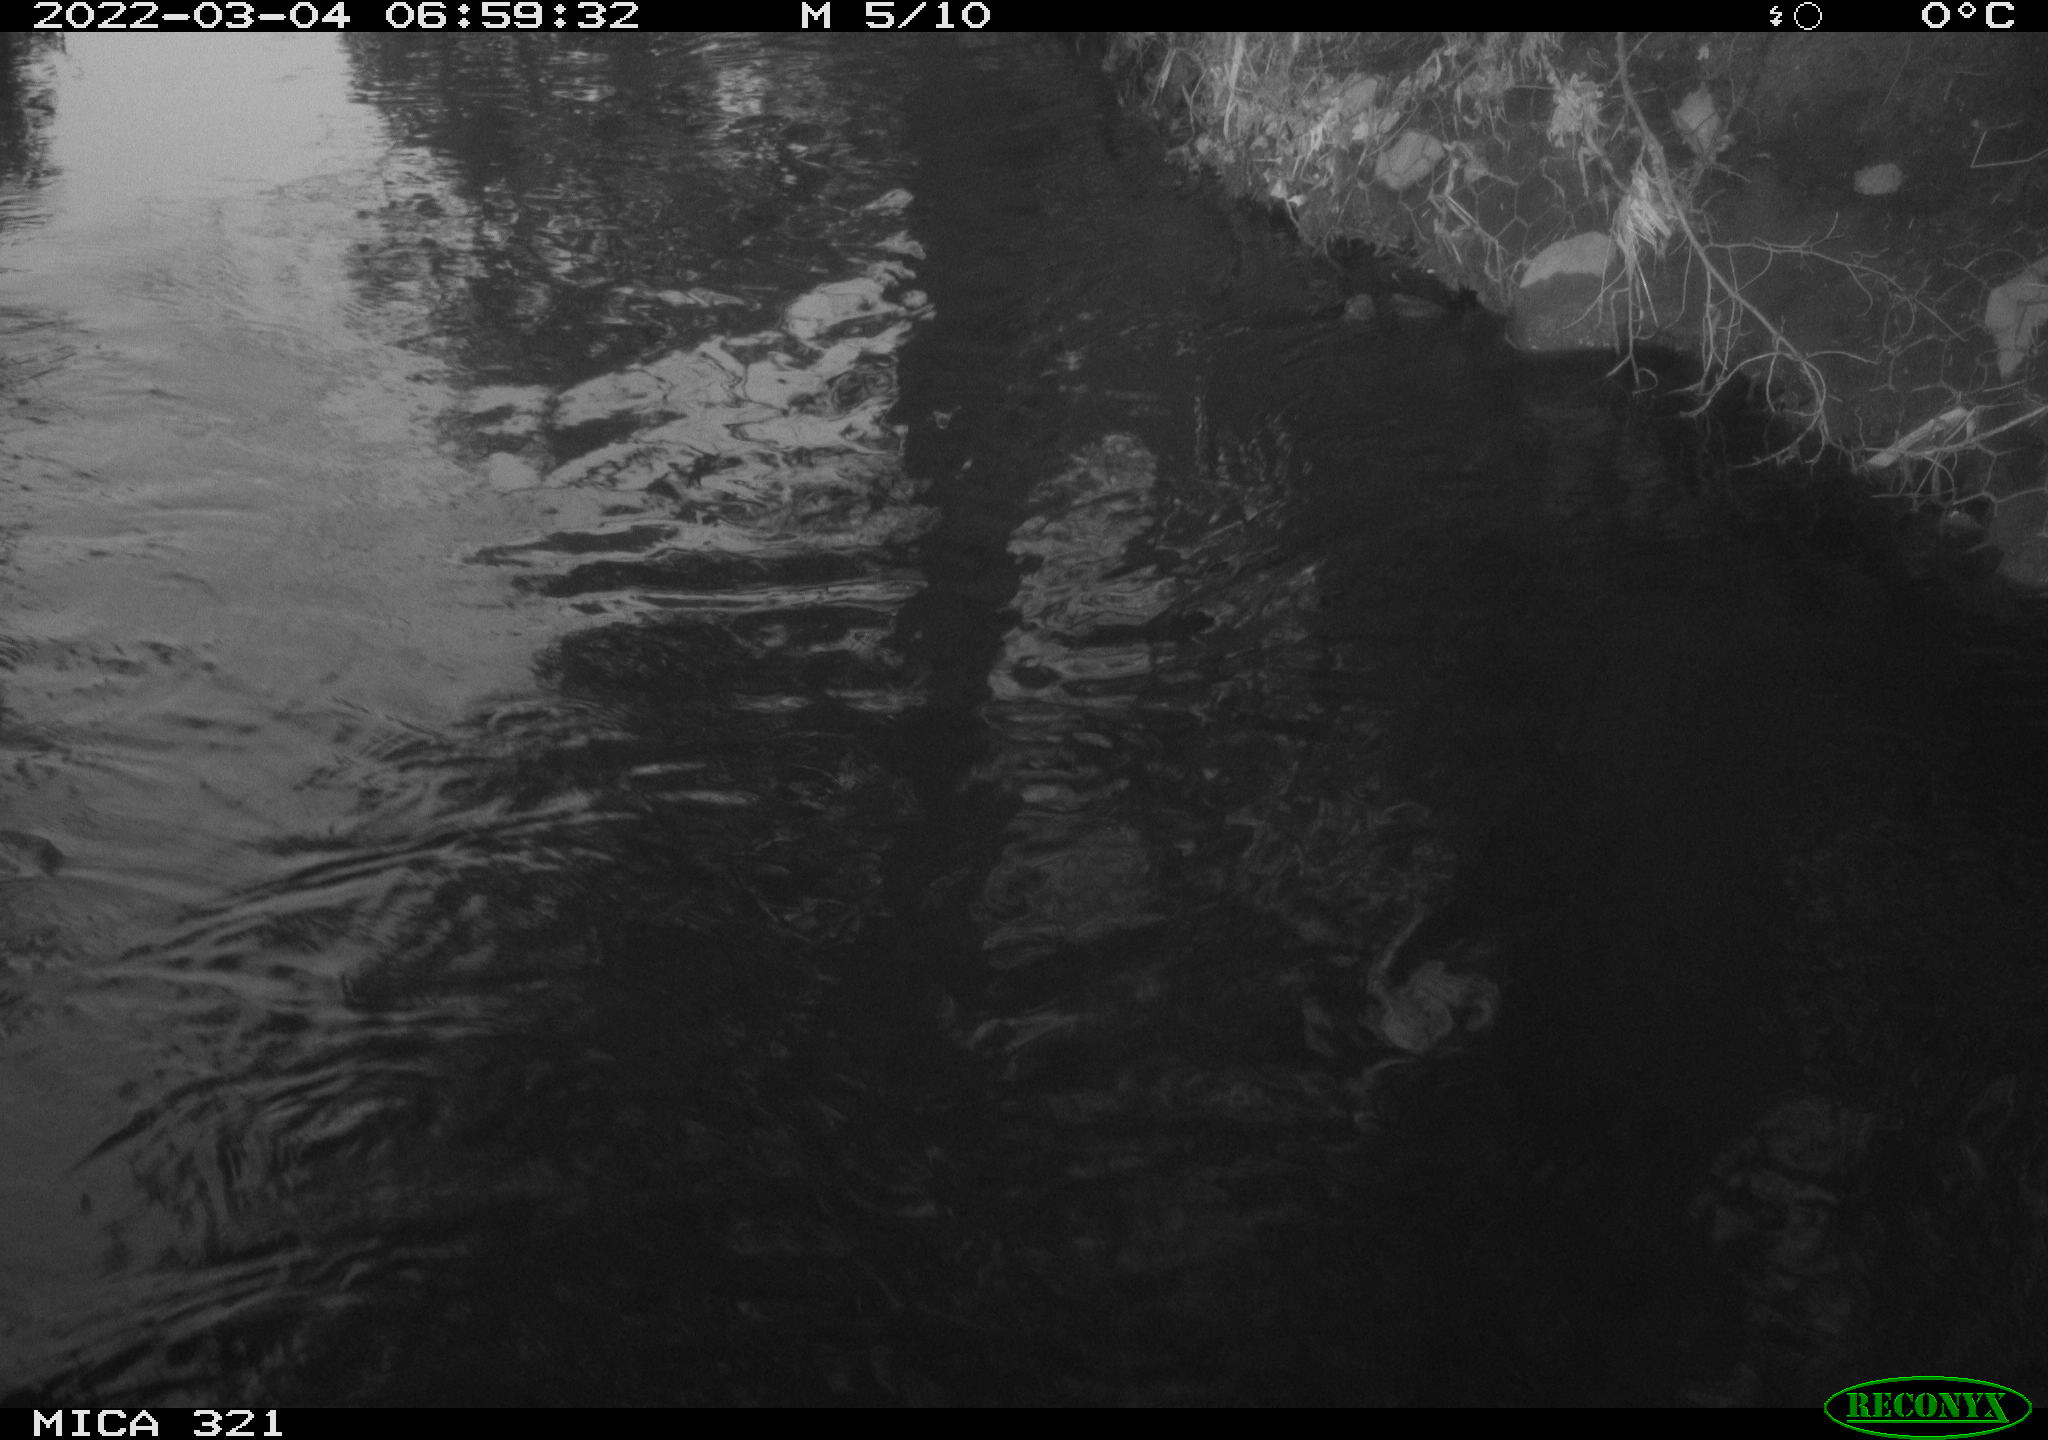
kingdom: Animalia
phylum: Chordata
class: Aves
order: Suliformes
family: Phalacrocoracidae
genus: Phalacrocorax
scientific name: Phalacrocorax carbo
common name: Great cormorant
